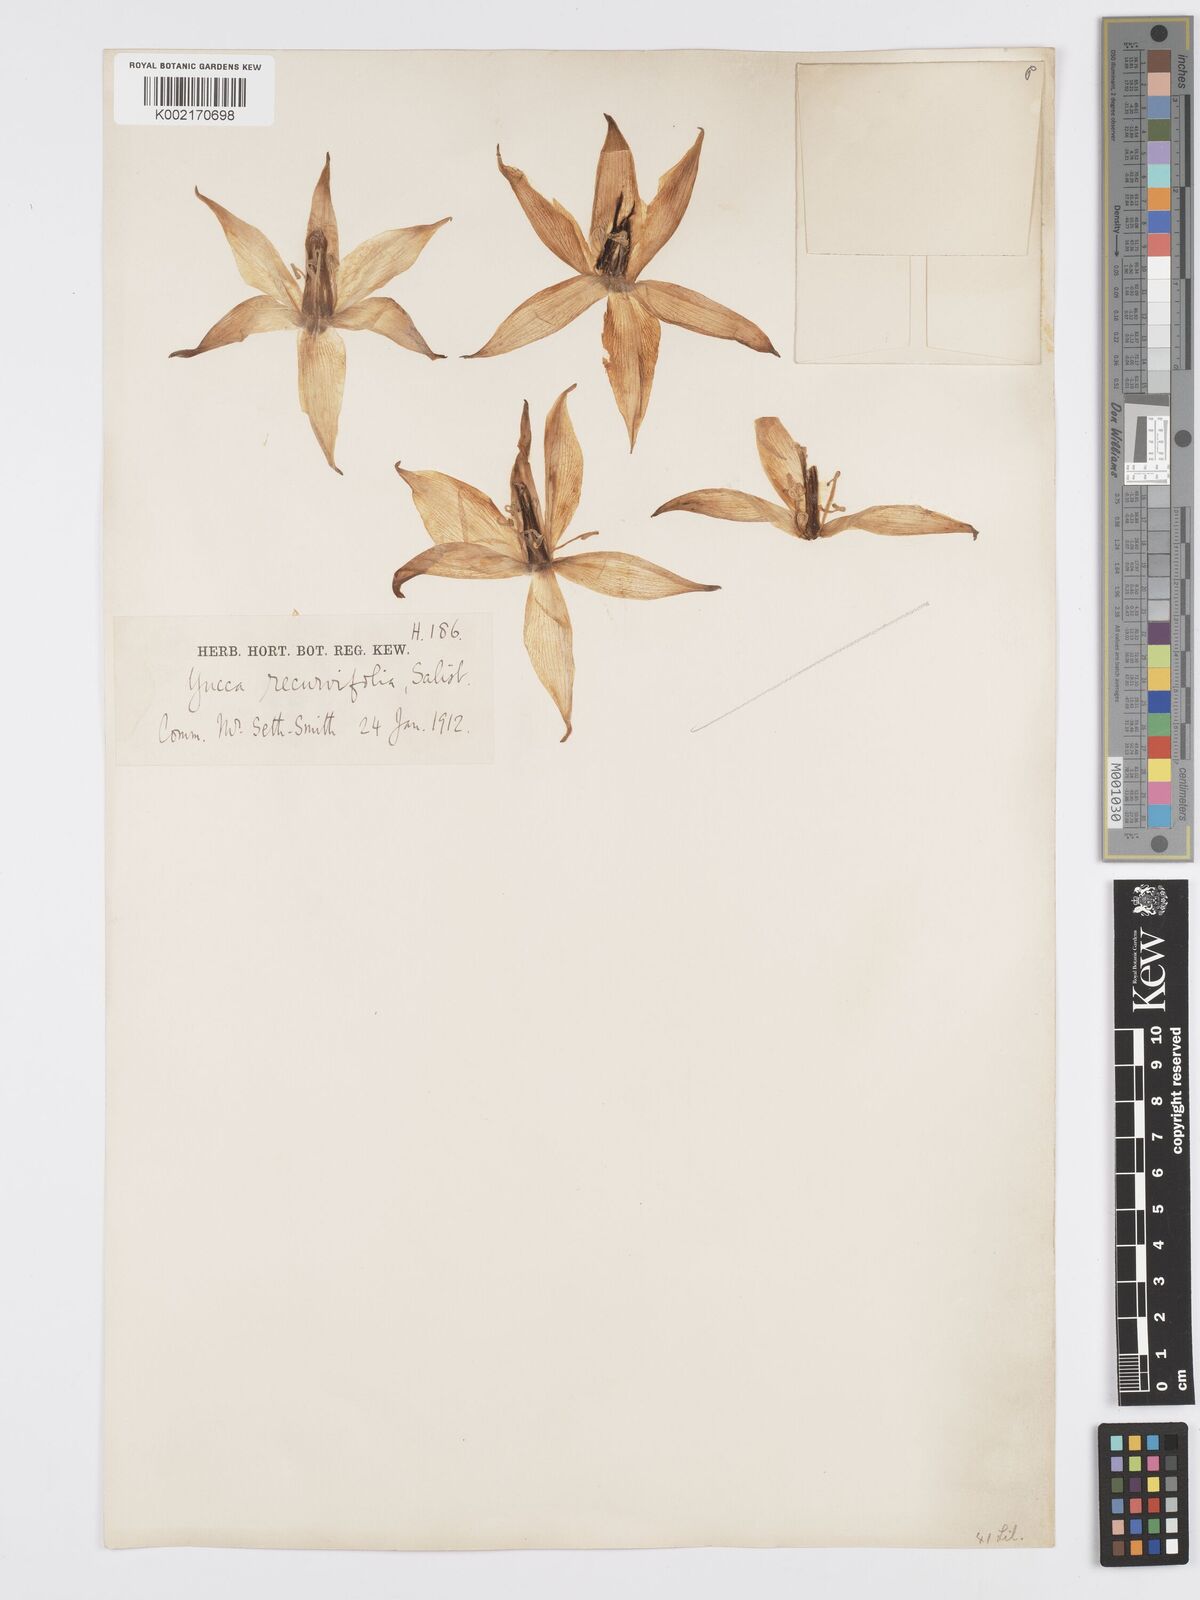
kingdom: Plantae
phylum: Tracheophyta
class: Liliopsida
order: Asparagales
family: Asparagaceae
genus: Yucca
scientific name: Yucca gloriosa
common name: Spanish-dagger
